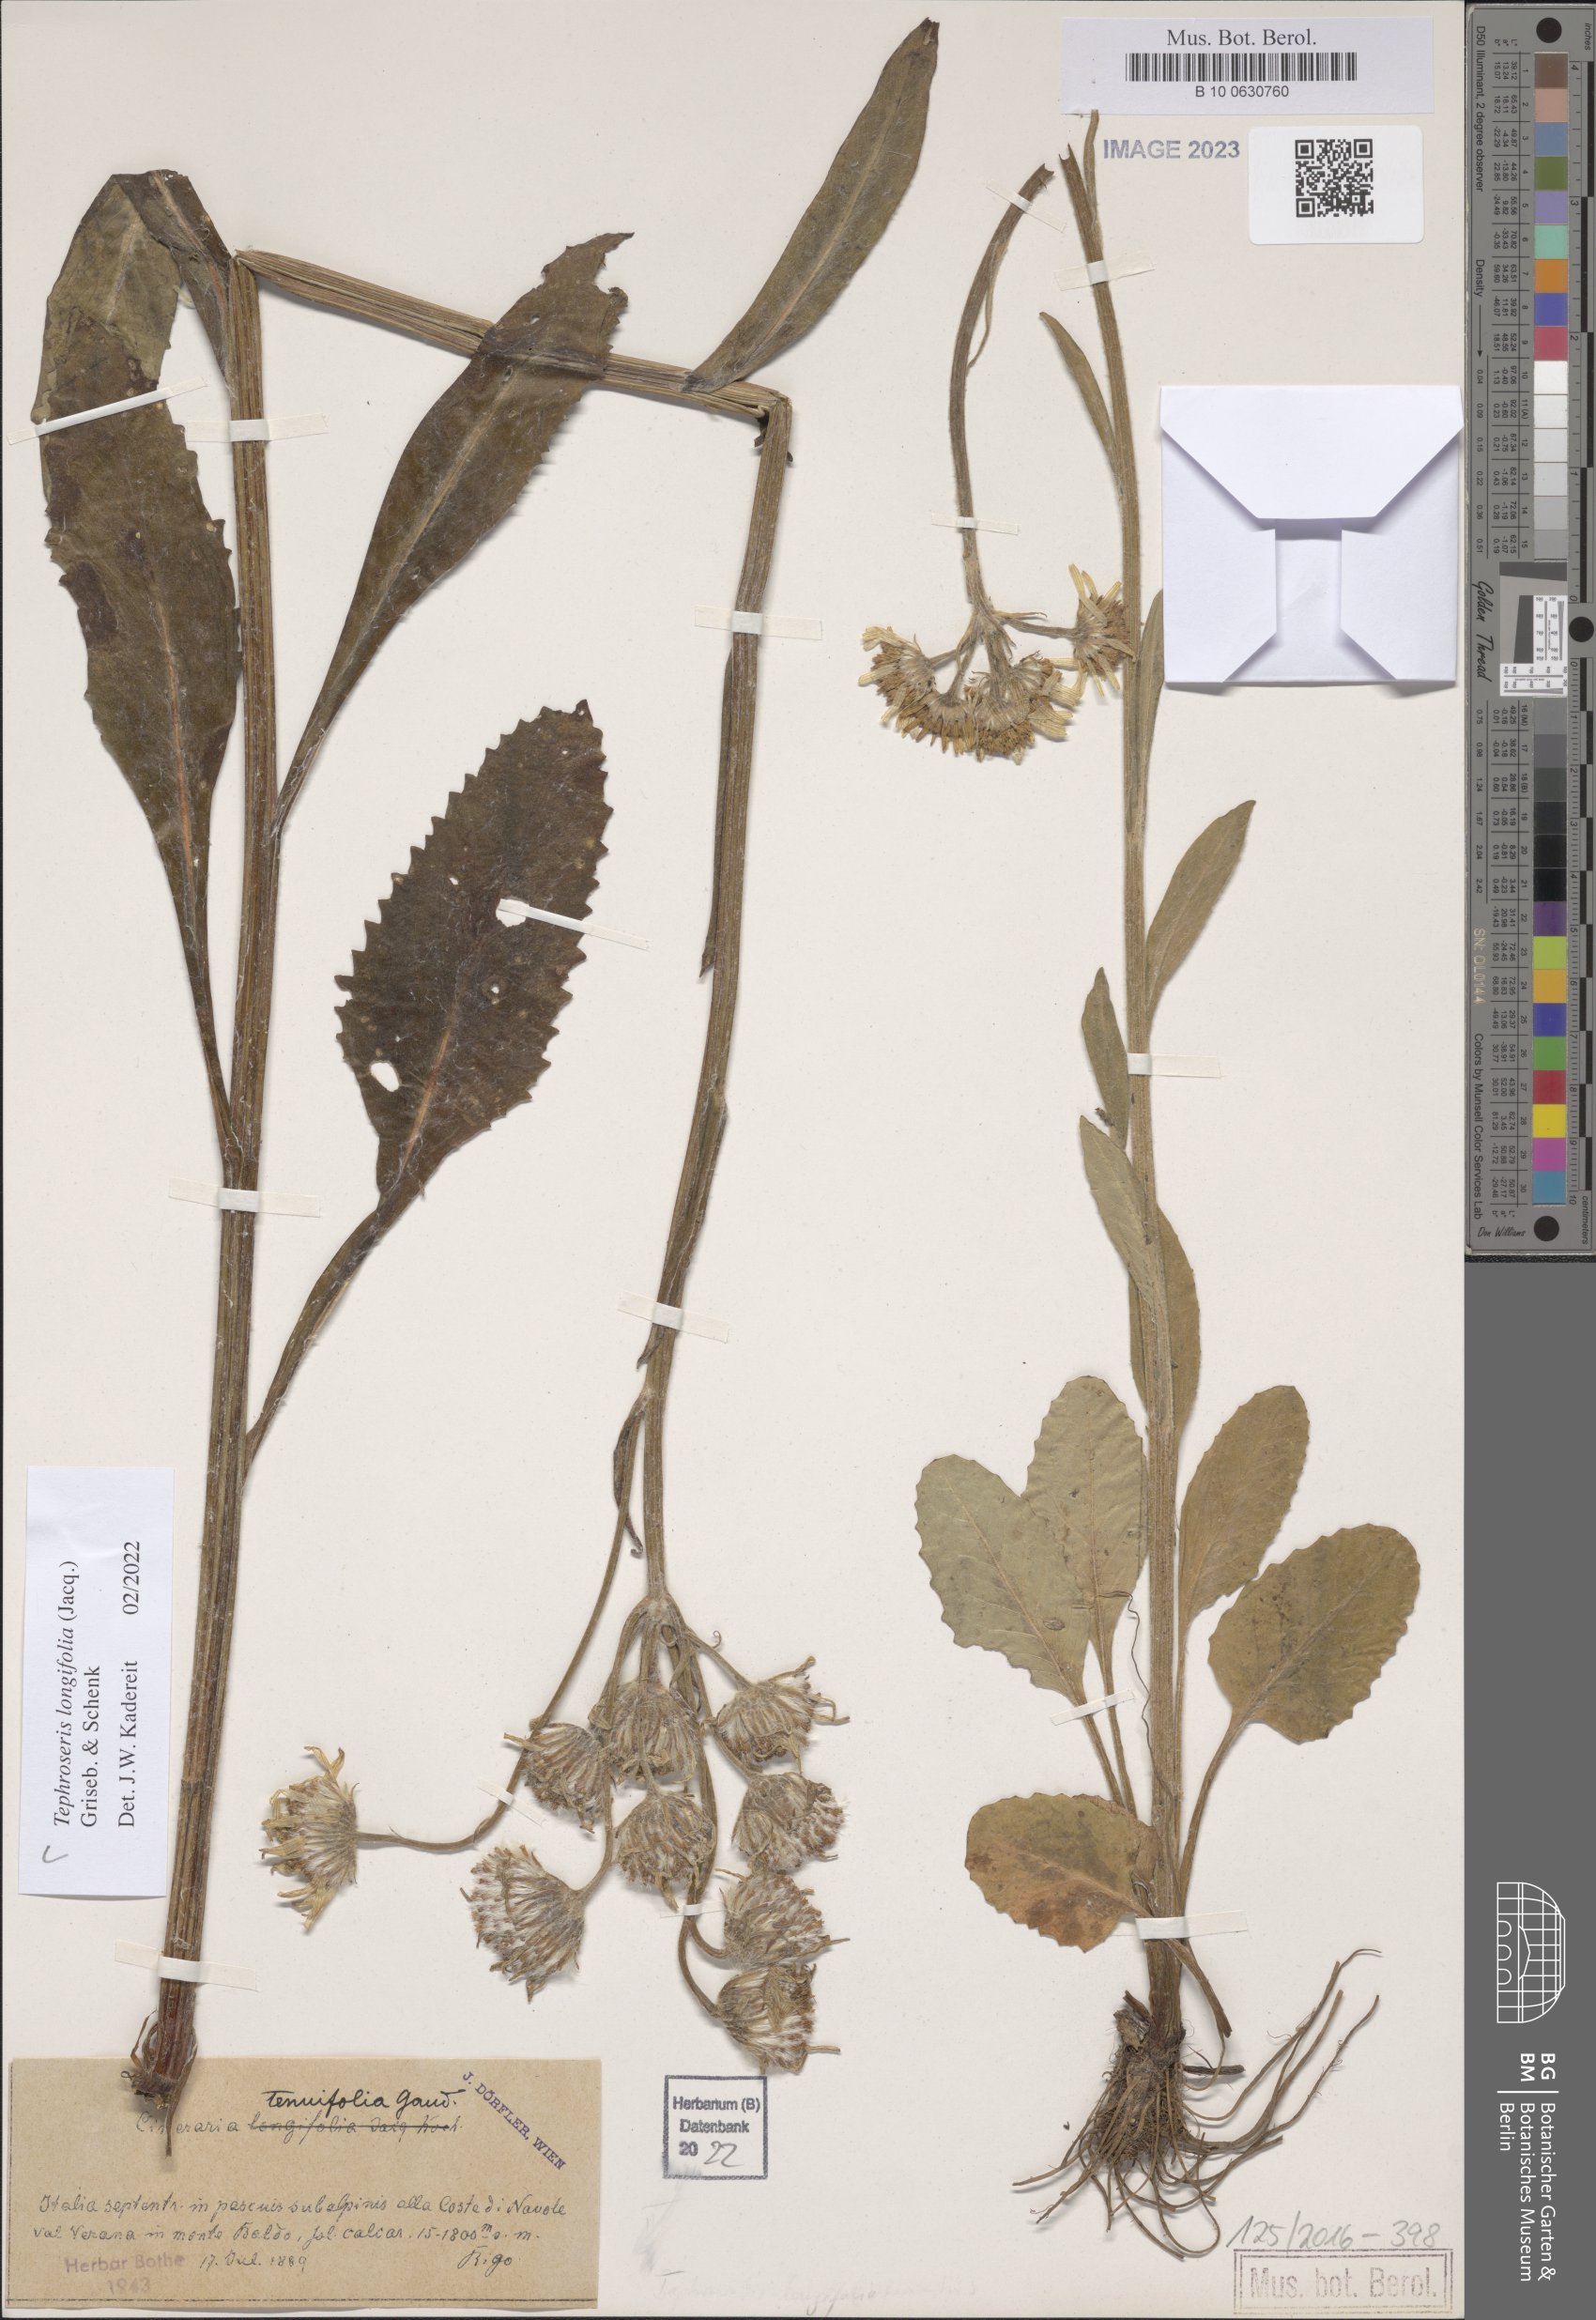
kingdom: Plantae
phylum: Tracheophyta
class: Magnoliopsida
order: Asterales
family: Asteraceae
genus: Tephroseris
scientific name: Tephroseris longifolia
